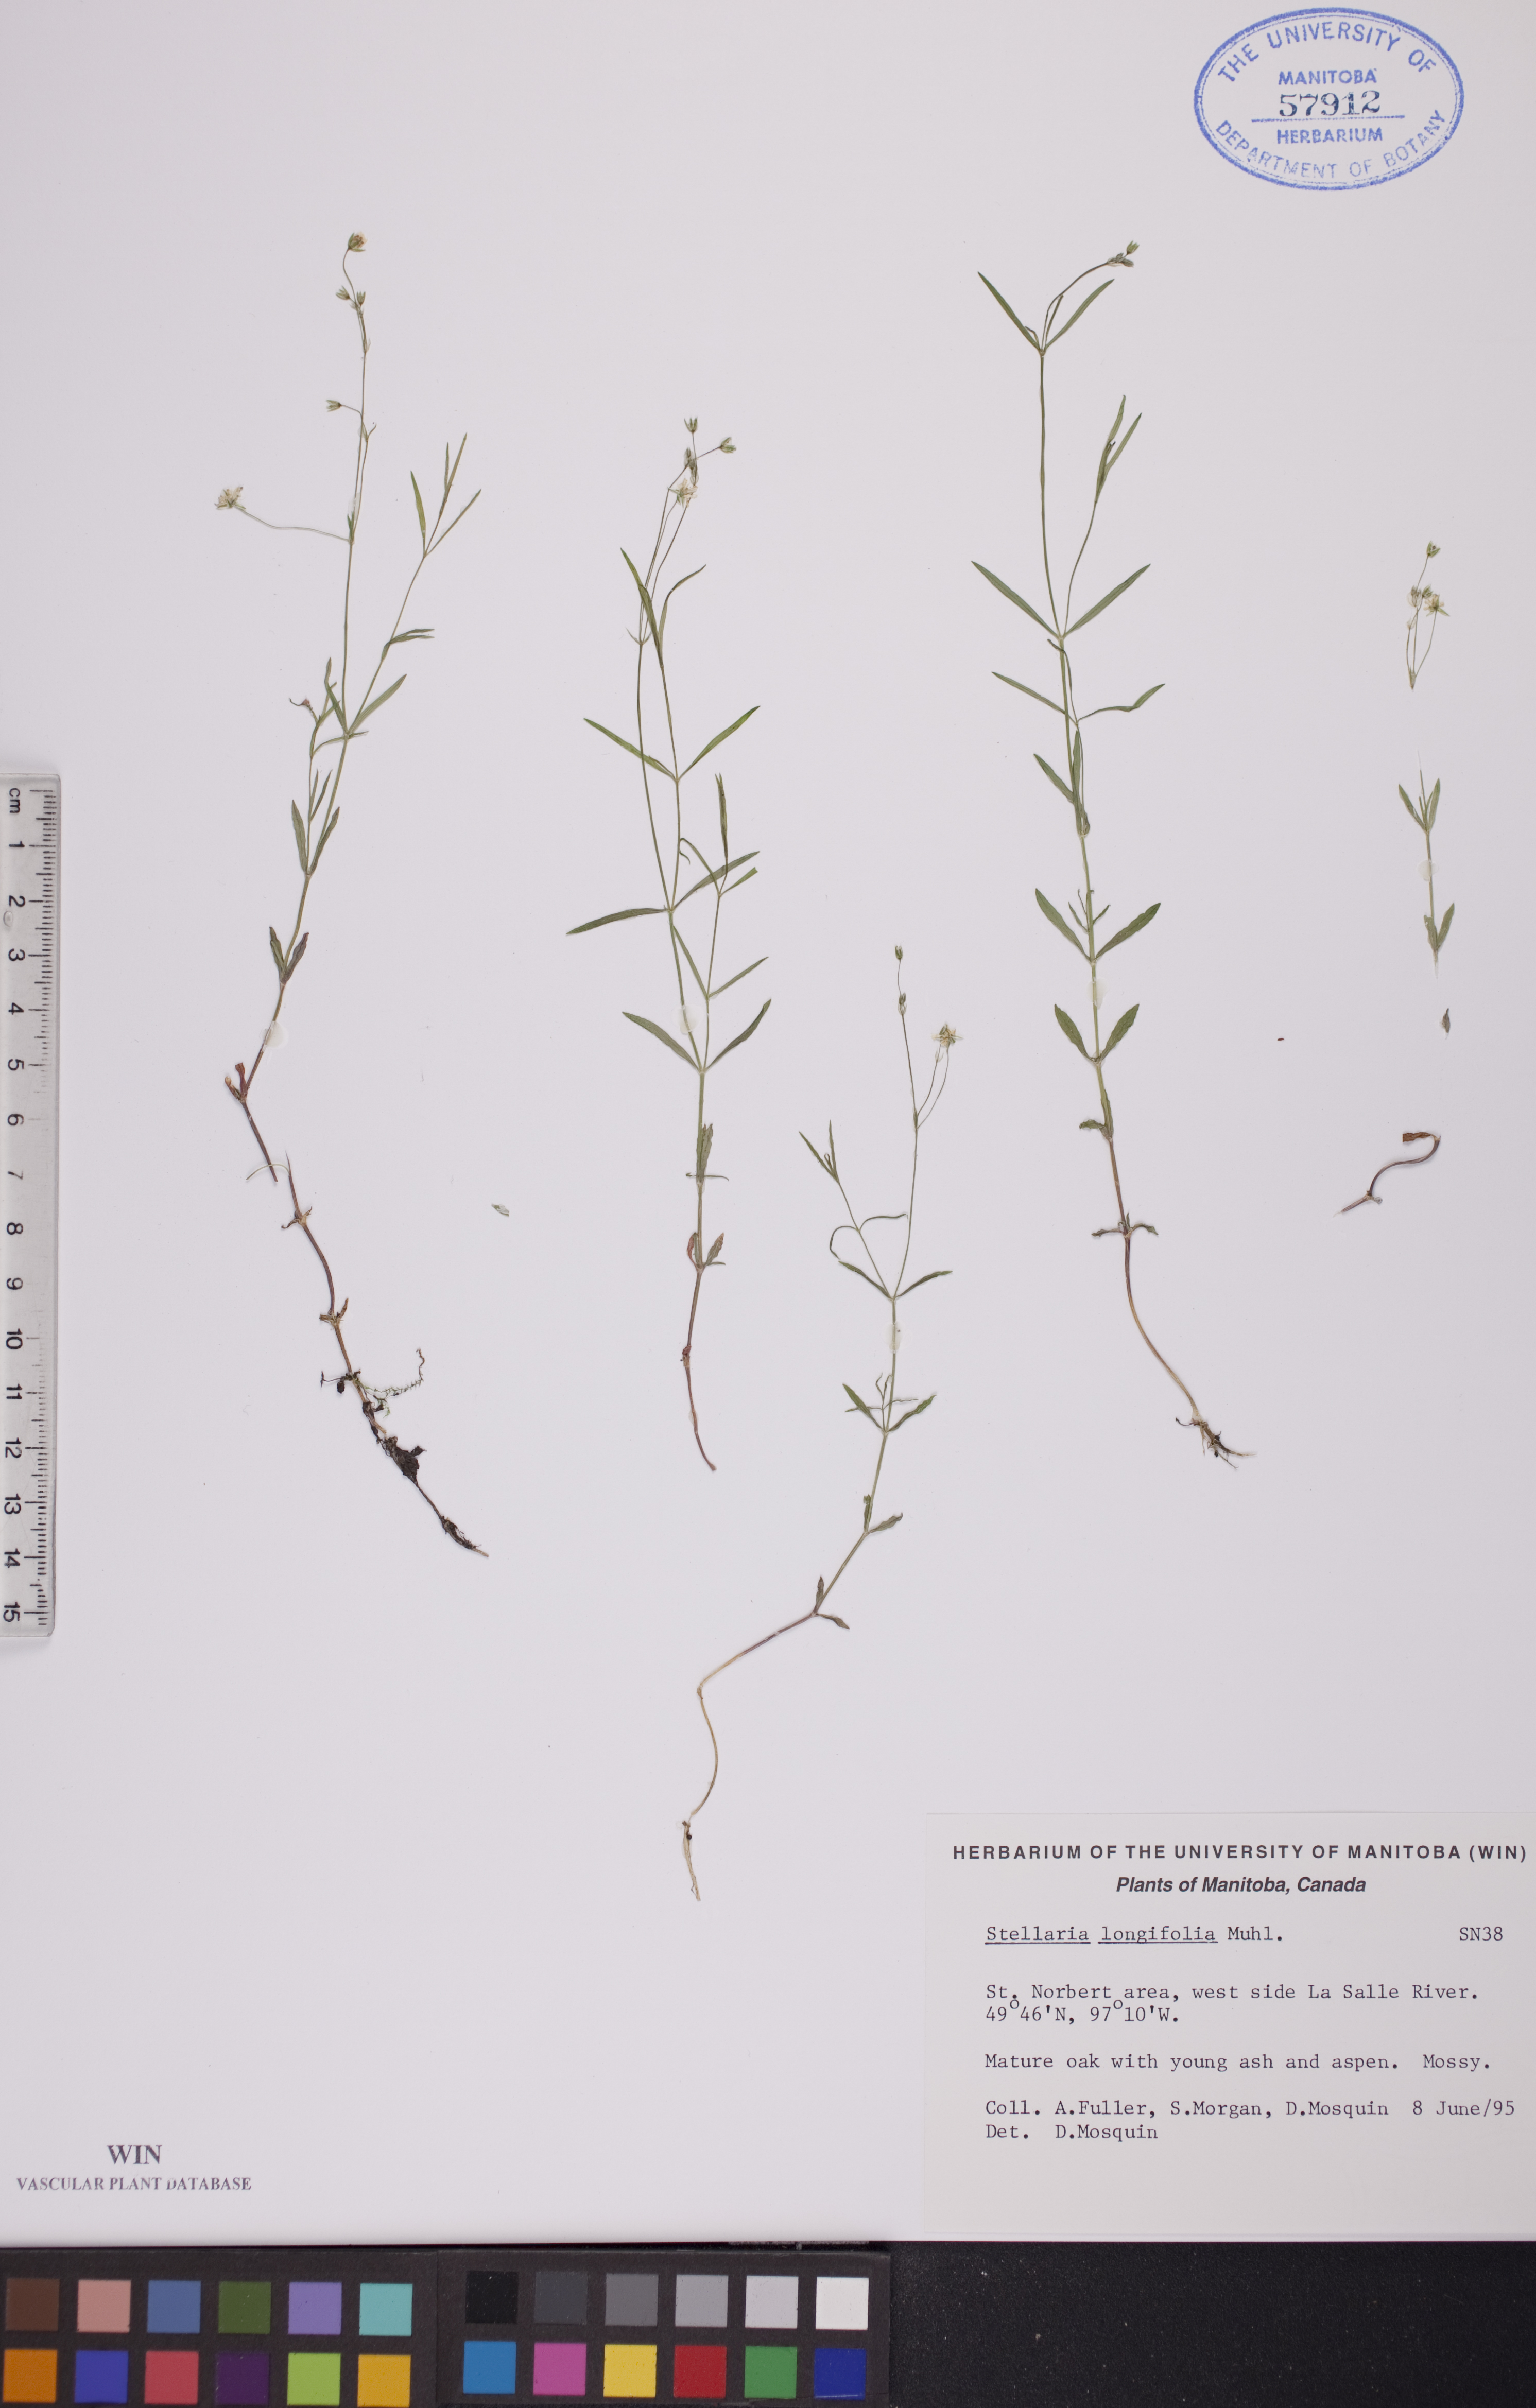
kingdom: Plantae
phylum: Tracheophyta
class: Magnoliopsida
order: Caryophyllales
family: Caryophyllaceae
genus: Stellaria
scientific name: Stellaria longifolia
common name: Long-leaved chickweed
